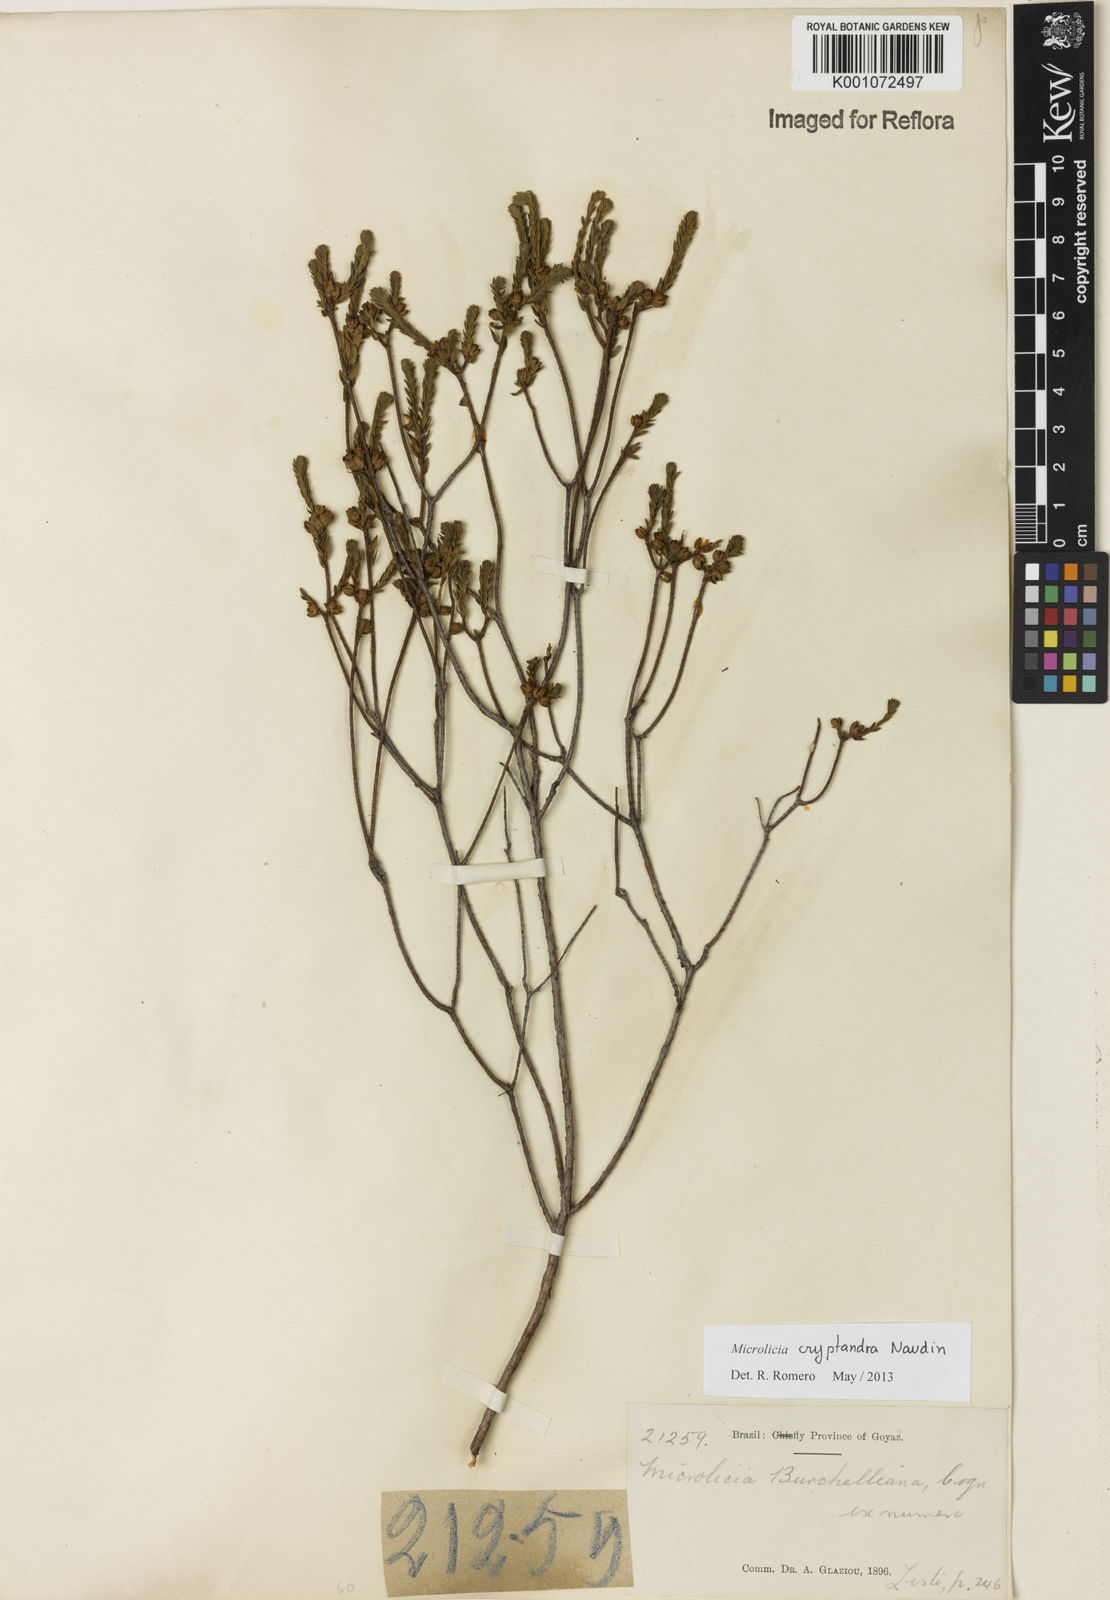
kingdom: Plantae
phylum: Tracheophyta
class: Magnoliopsida
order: Myrtales
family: Melastomataceae
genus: Microlicia
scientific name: Microlicia cryptandra
